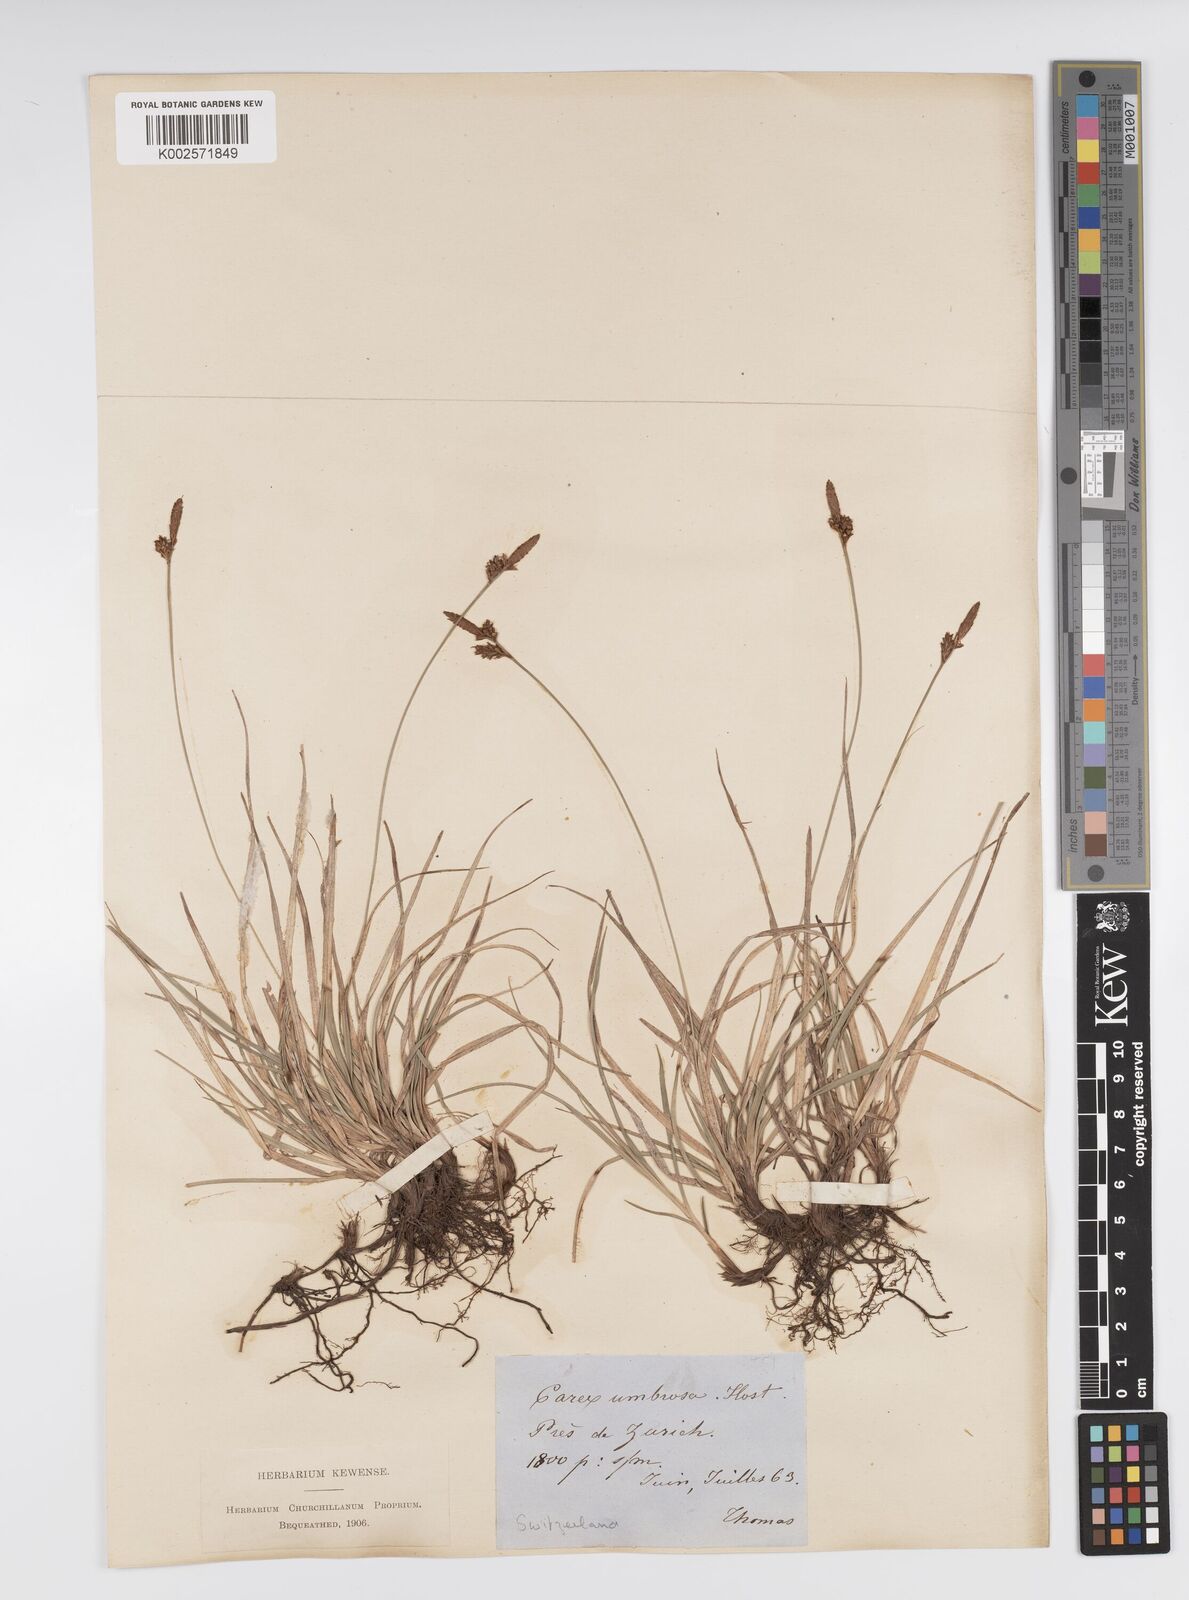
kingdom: Plantae
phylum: Tracheophyta
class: Liliopsida
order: Poales
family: Cyperaceae
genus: Carex
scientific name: Carex umbrosa
